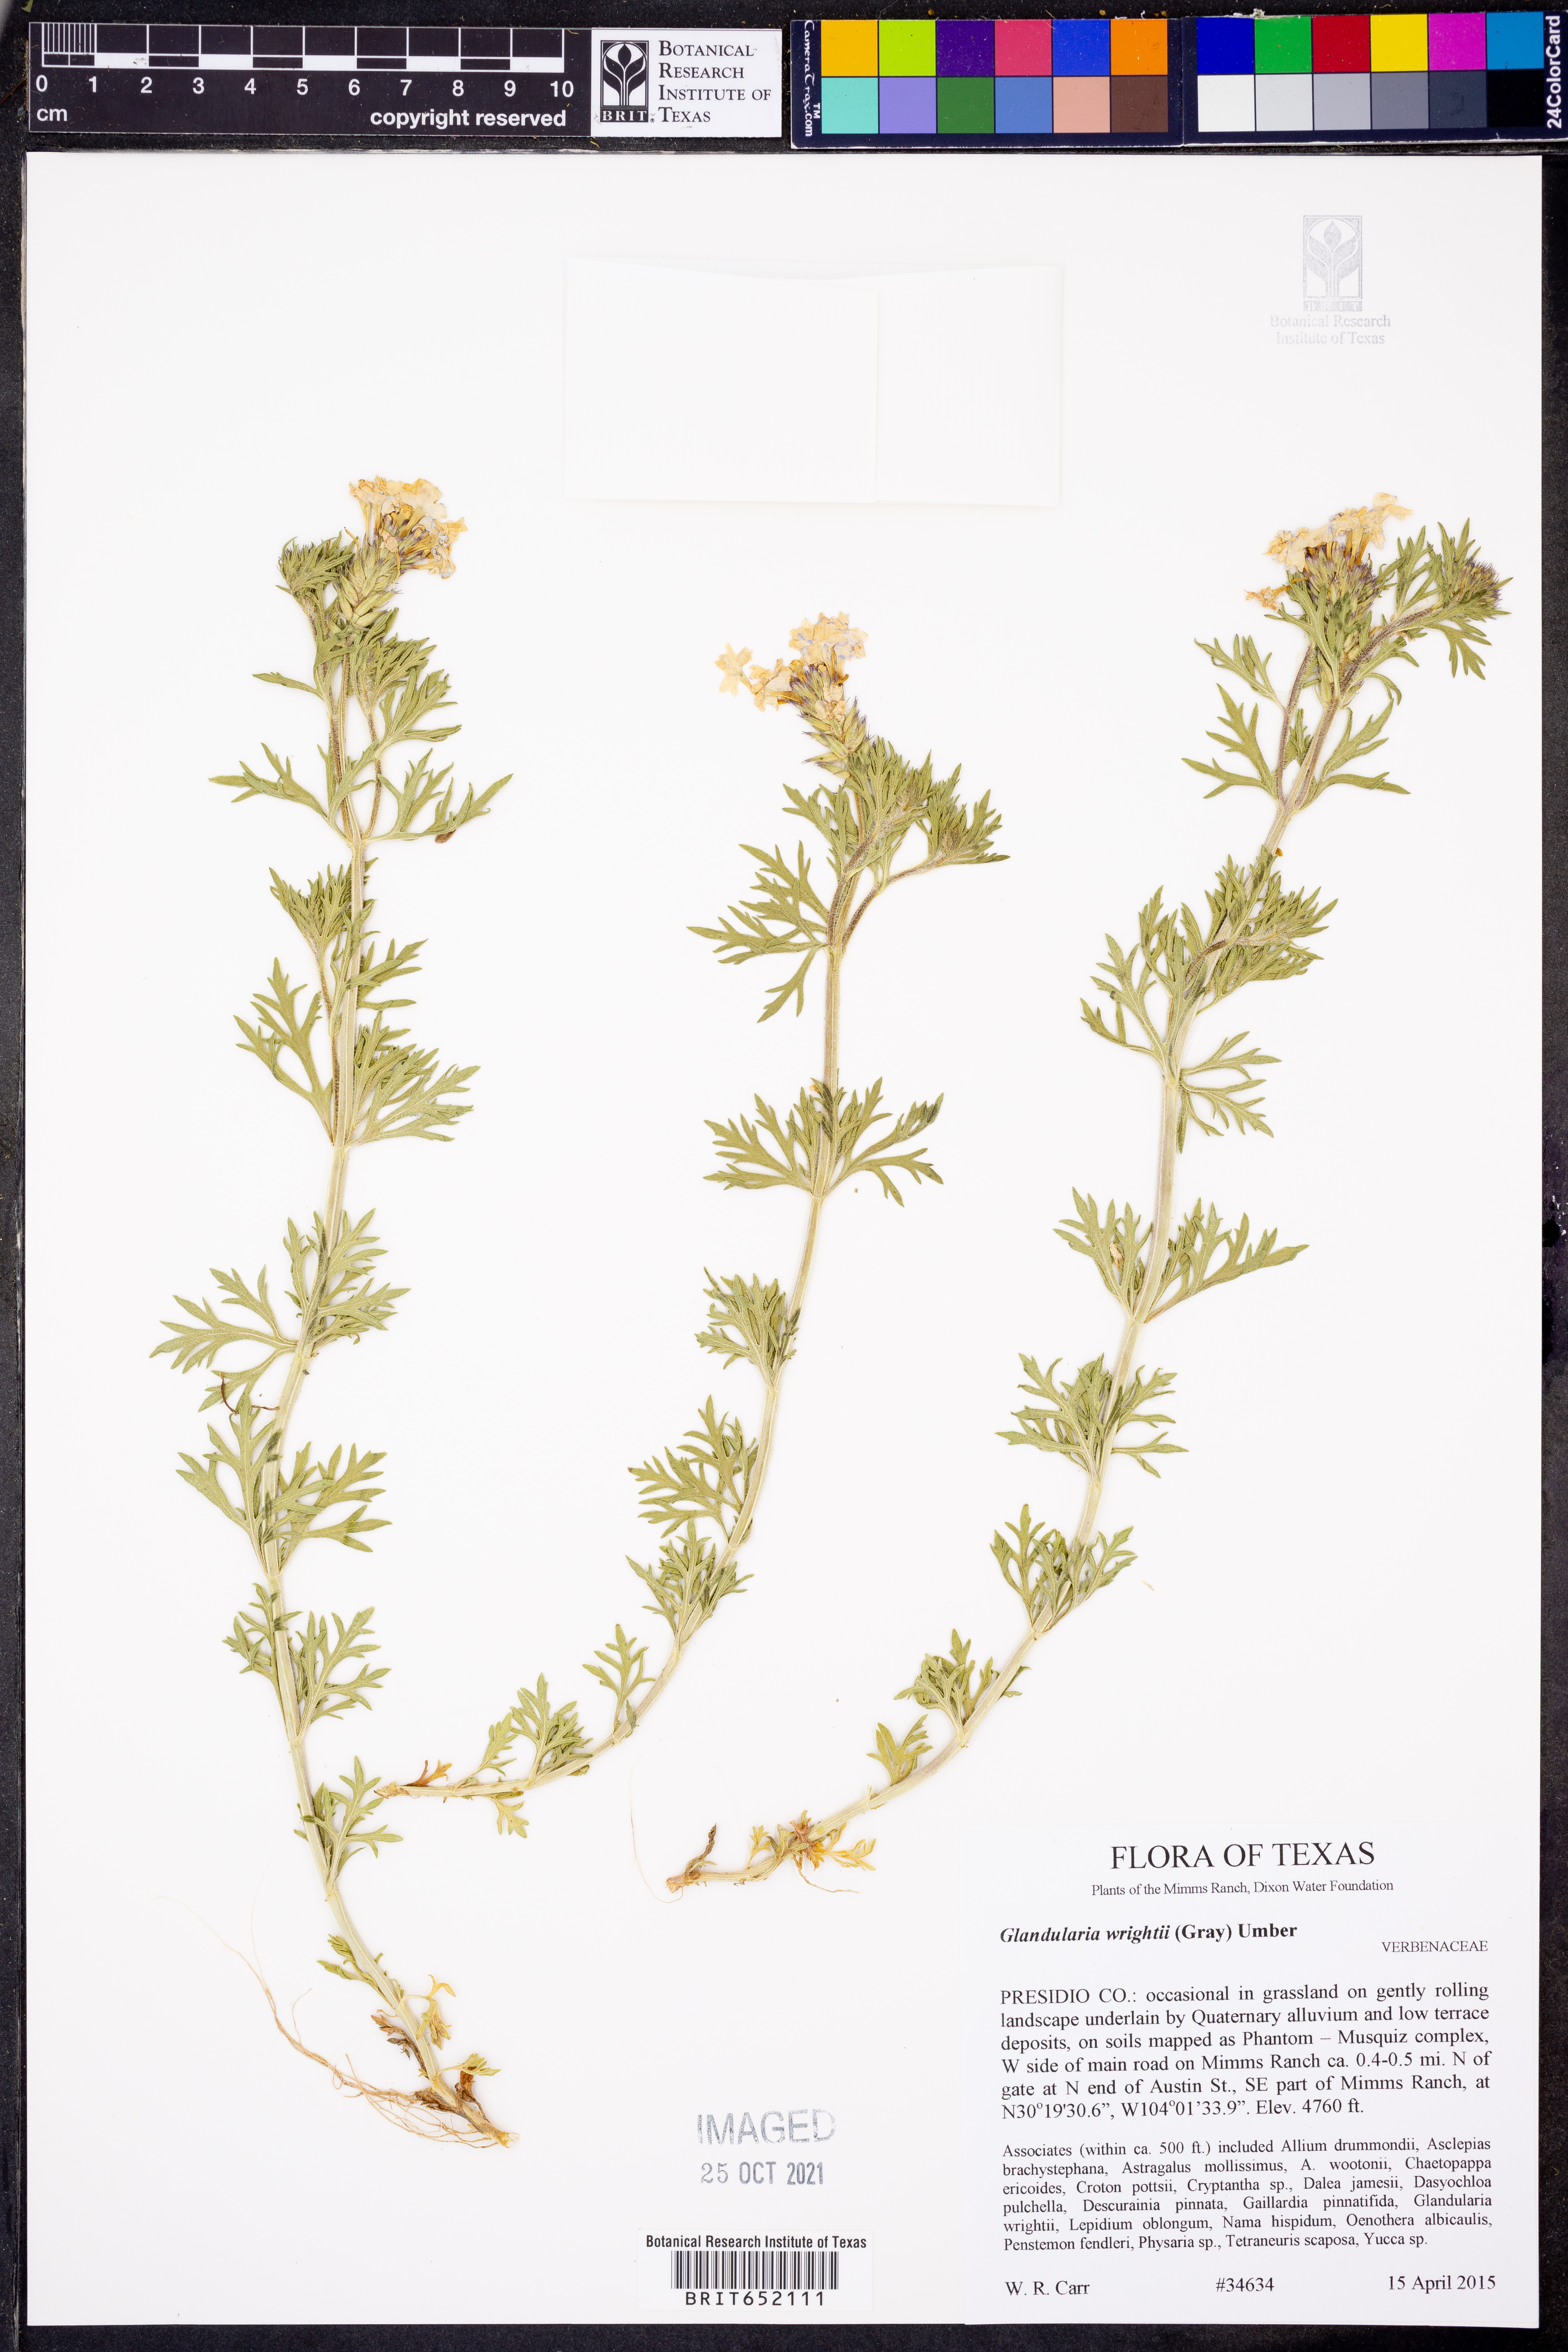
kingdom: Plantae
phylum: Tracheophyta
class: Magnoliopsida
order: Lamiales
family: Verbenaceae
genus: Verbena
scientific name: Verbena bipinnatifida
